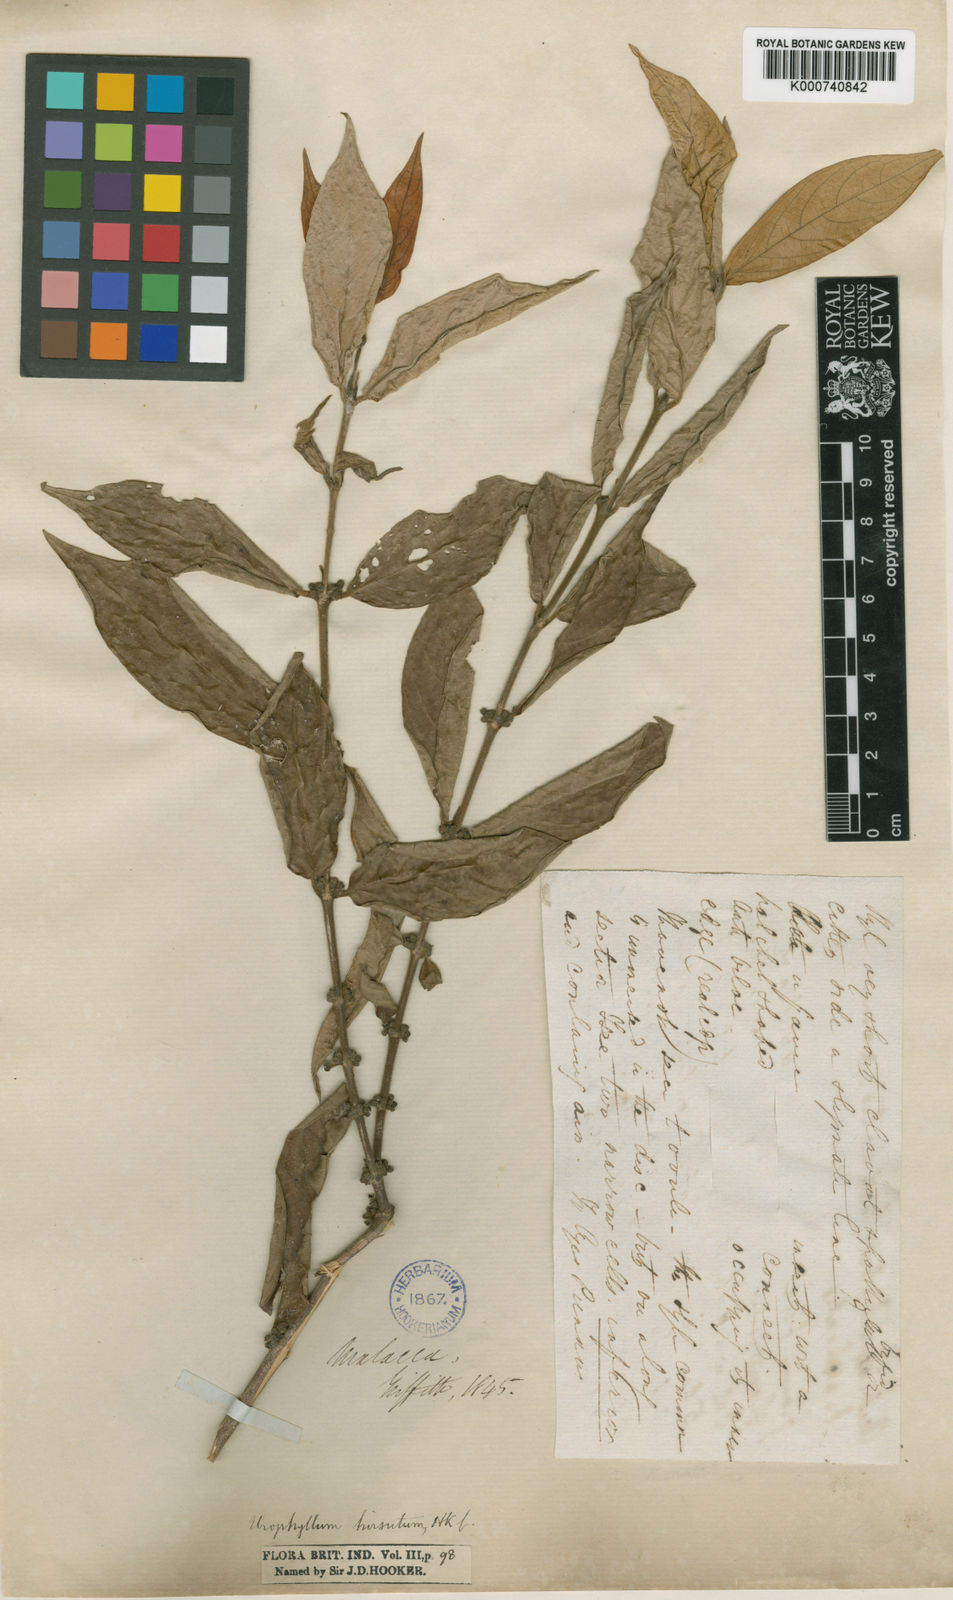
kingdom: Plantae
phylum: Tracheophyta
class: Magnoliopsida
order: Gentianales
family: Rubiaceae
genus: Urophyllum
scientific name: Urophyllum hirsutum
